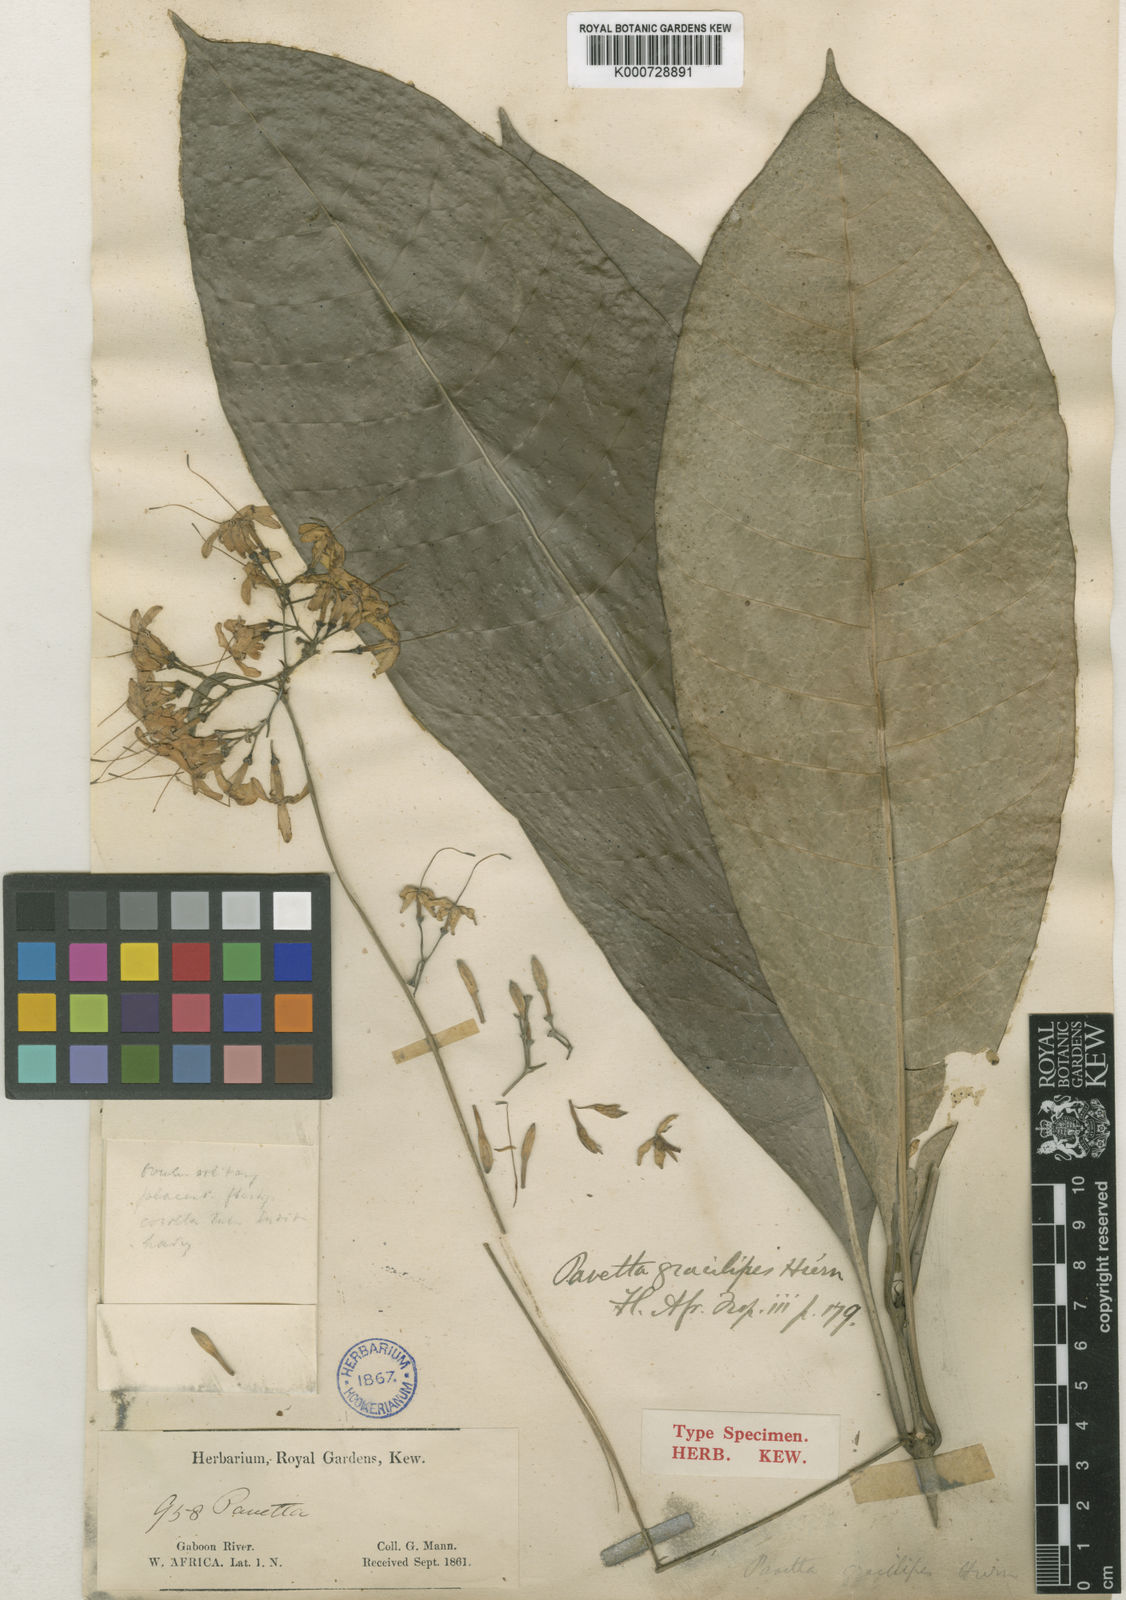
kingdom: Plantae
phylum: Tracheophyta
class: Magnoliopsida
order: Gentianales
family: Rubiaceae
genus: Pavetta
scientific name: Pavetta gracilipes
